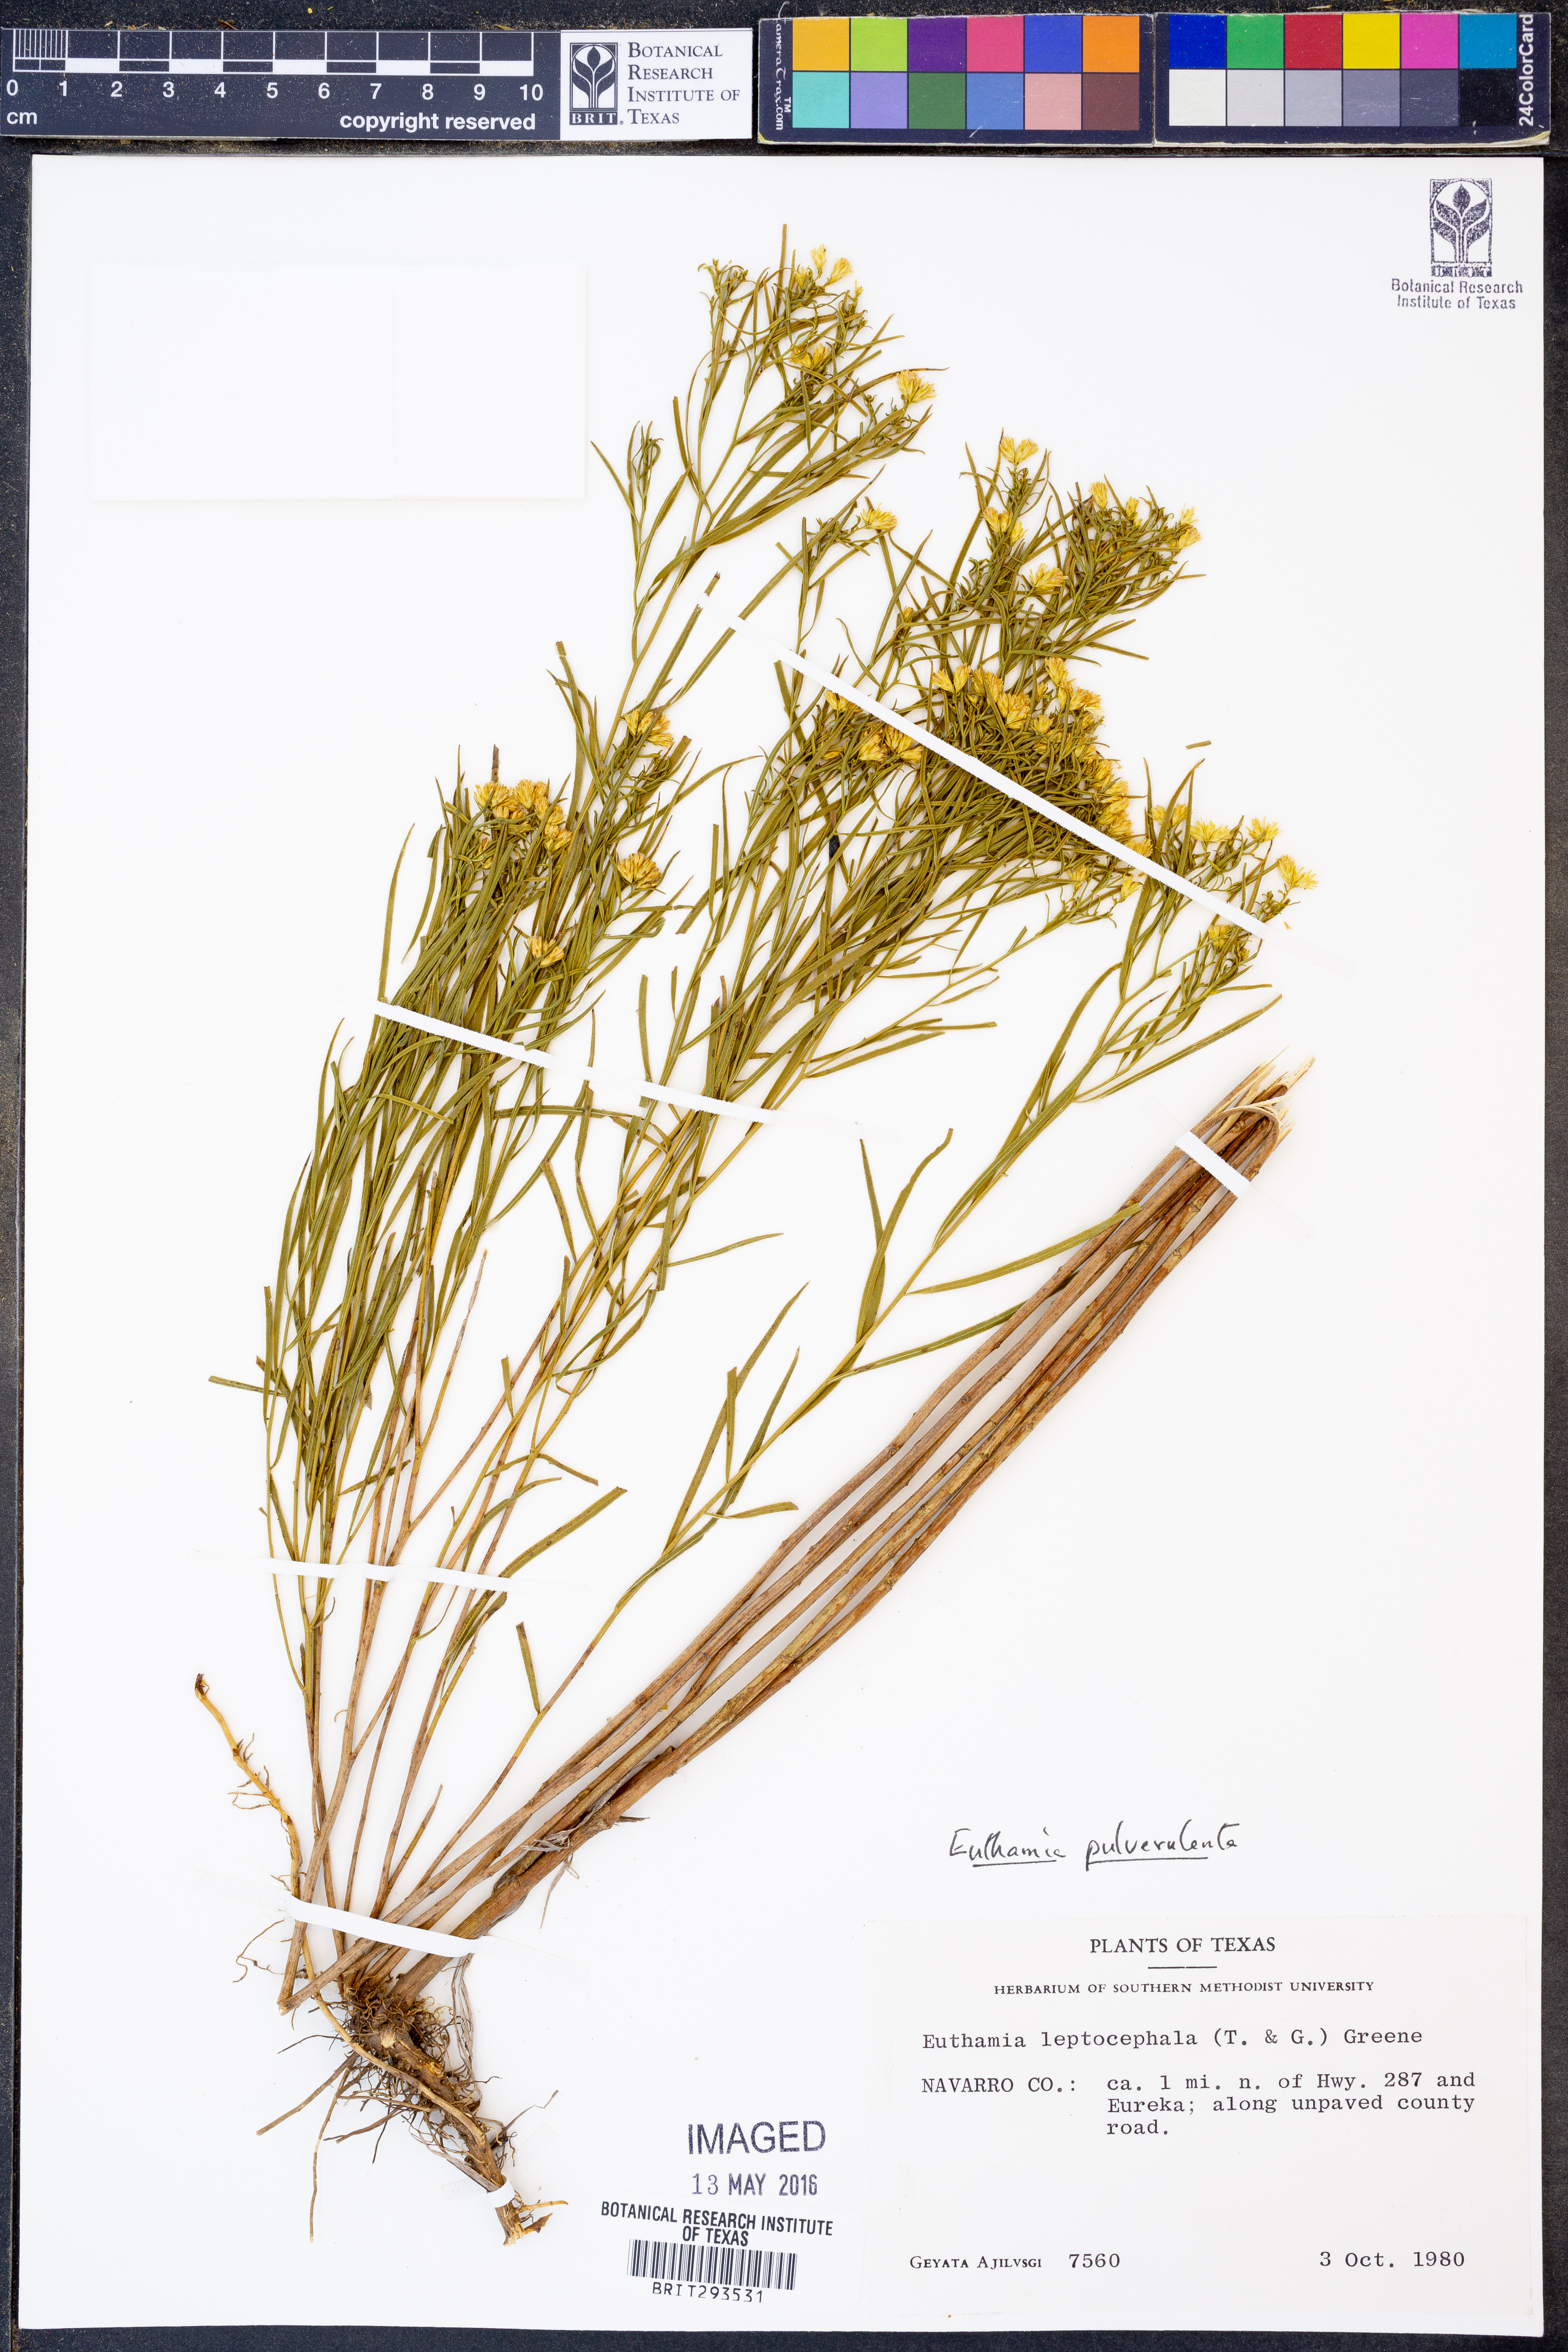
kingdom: Plantae
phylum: Tracheophyta
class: Magnoliopsida
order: Asterales
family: Asteraceae
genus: Euthamia
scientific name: Euthamia pulverulenta
